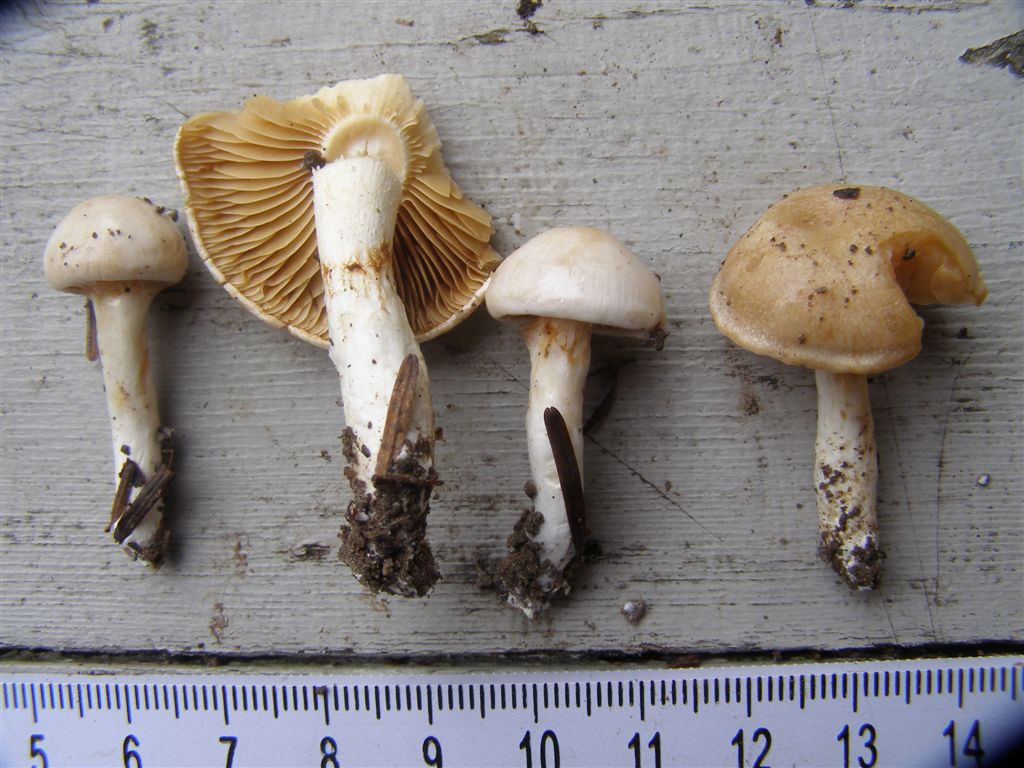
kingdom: Fungi
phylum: Basidiomycota
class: Agaricomycetes
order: Agaricales
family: Cortinariaceae
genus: Thaxterogaster
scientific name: Thaxterogaster barbatus
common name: elfenbens-slørhat
